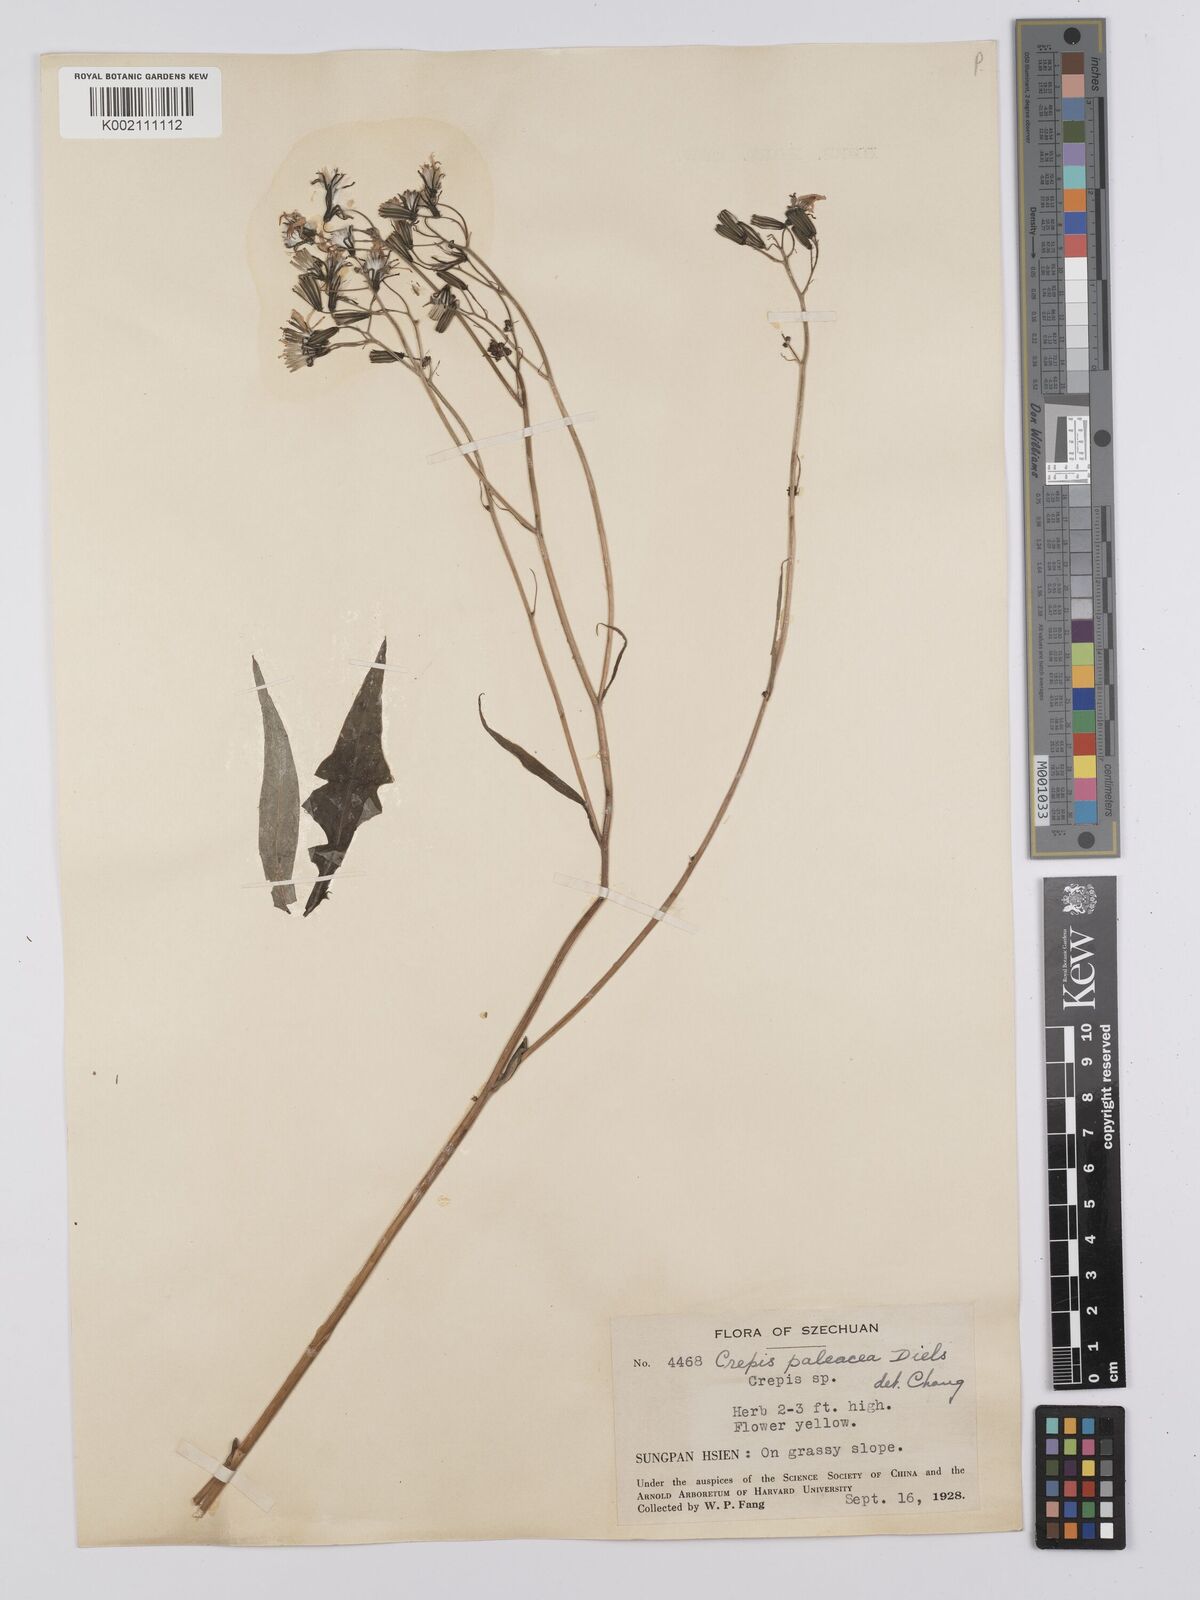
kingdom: Plantae
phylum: Tracheophyta
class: Magnoliopsida
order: Asterales
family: Asteraceae
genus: Youngia
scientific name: Youngia paleacea
